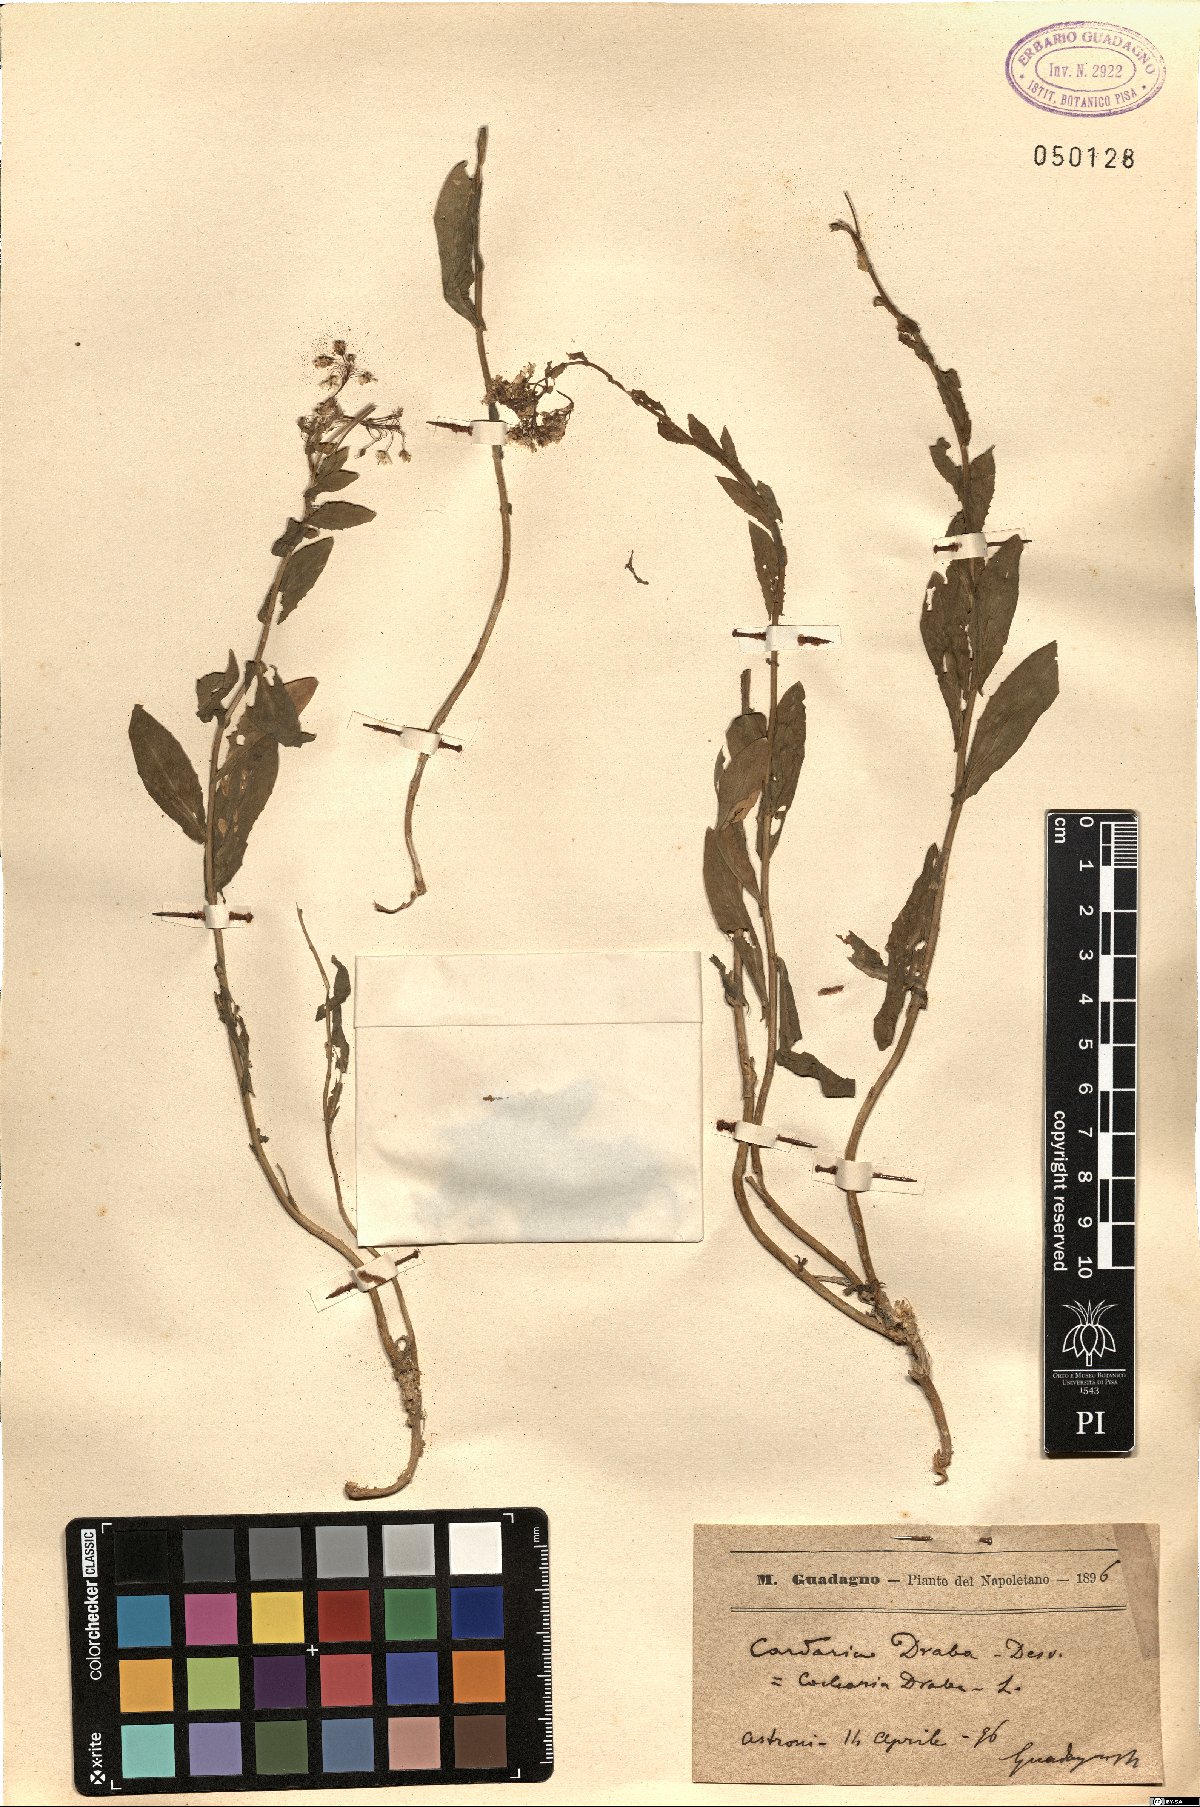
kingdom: Plantae
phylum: Tracheophyta
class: Magnoliopsida
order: Brassicales
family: Brassicaceae
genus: Lepidium
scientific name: Lepidium draba
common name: Hoary cress
